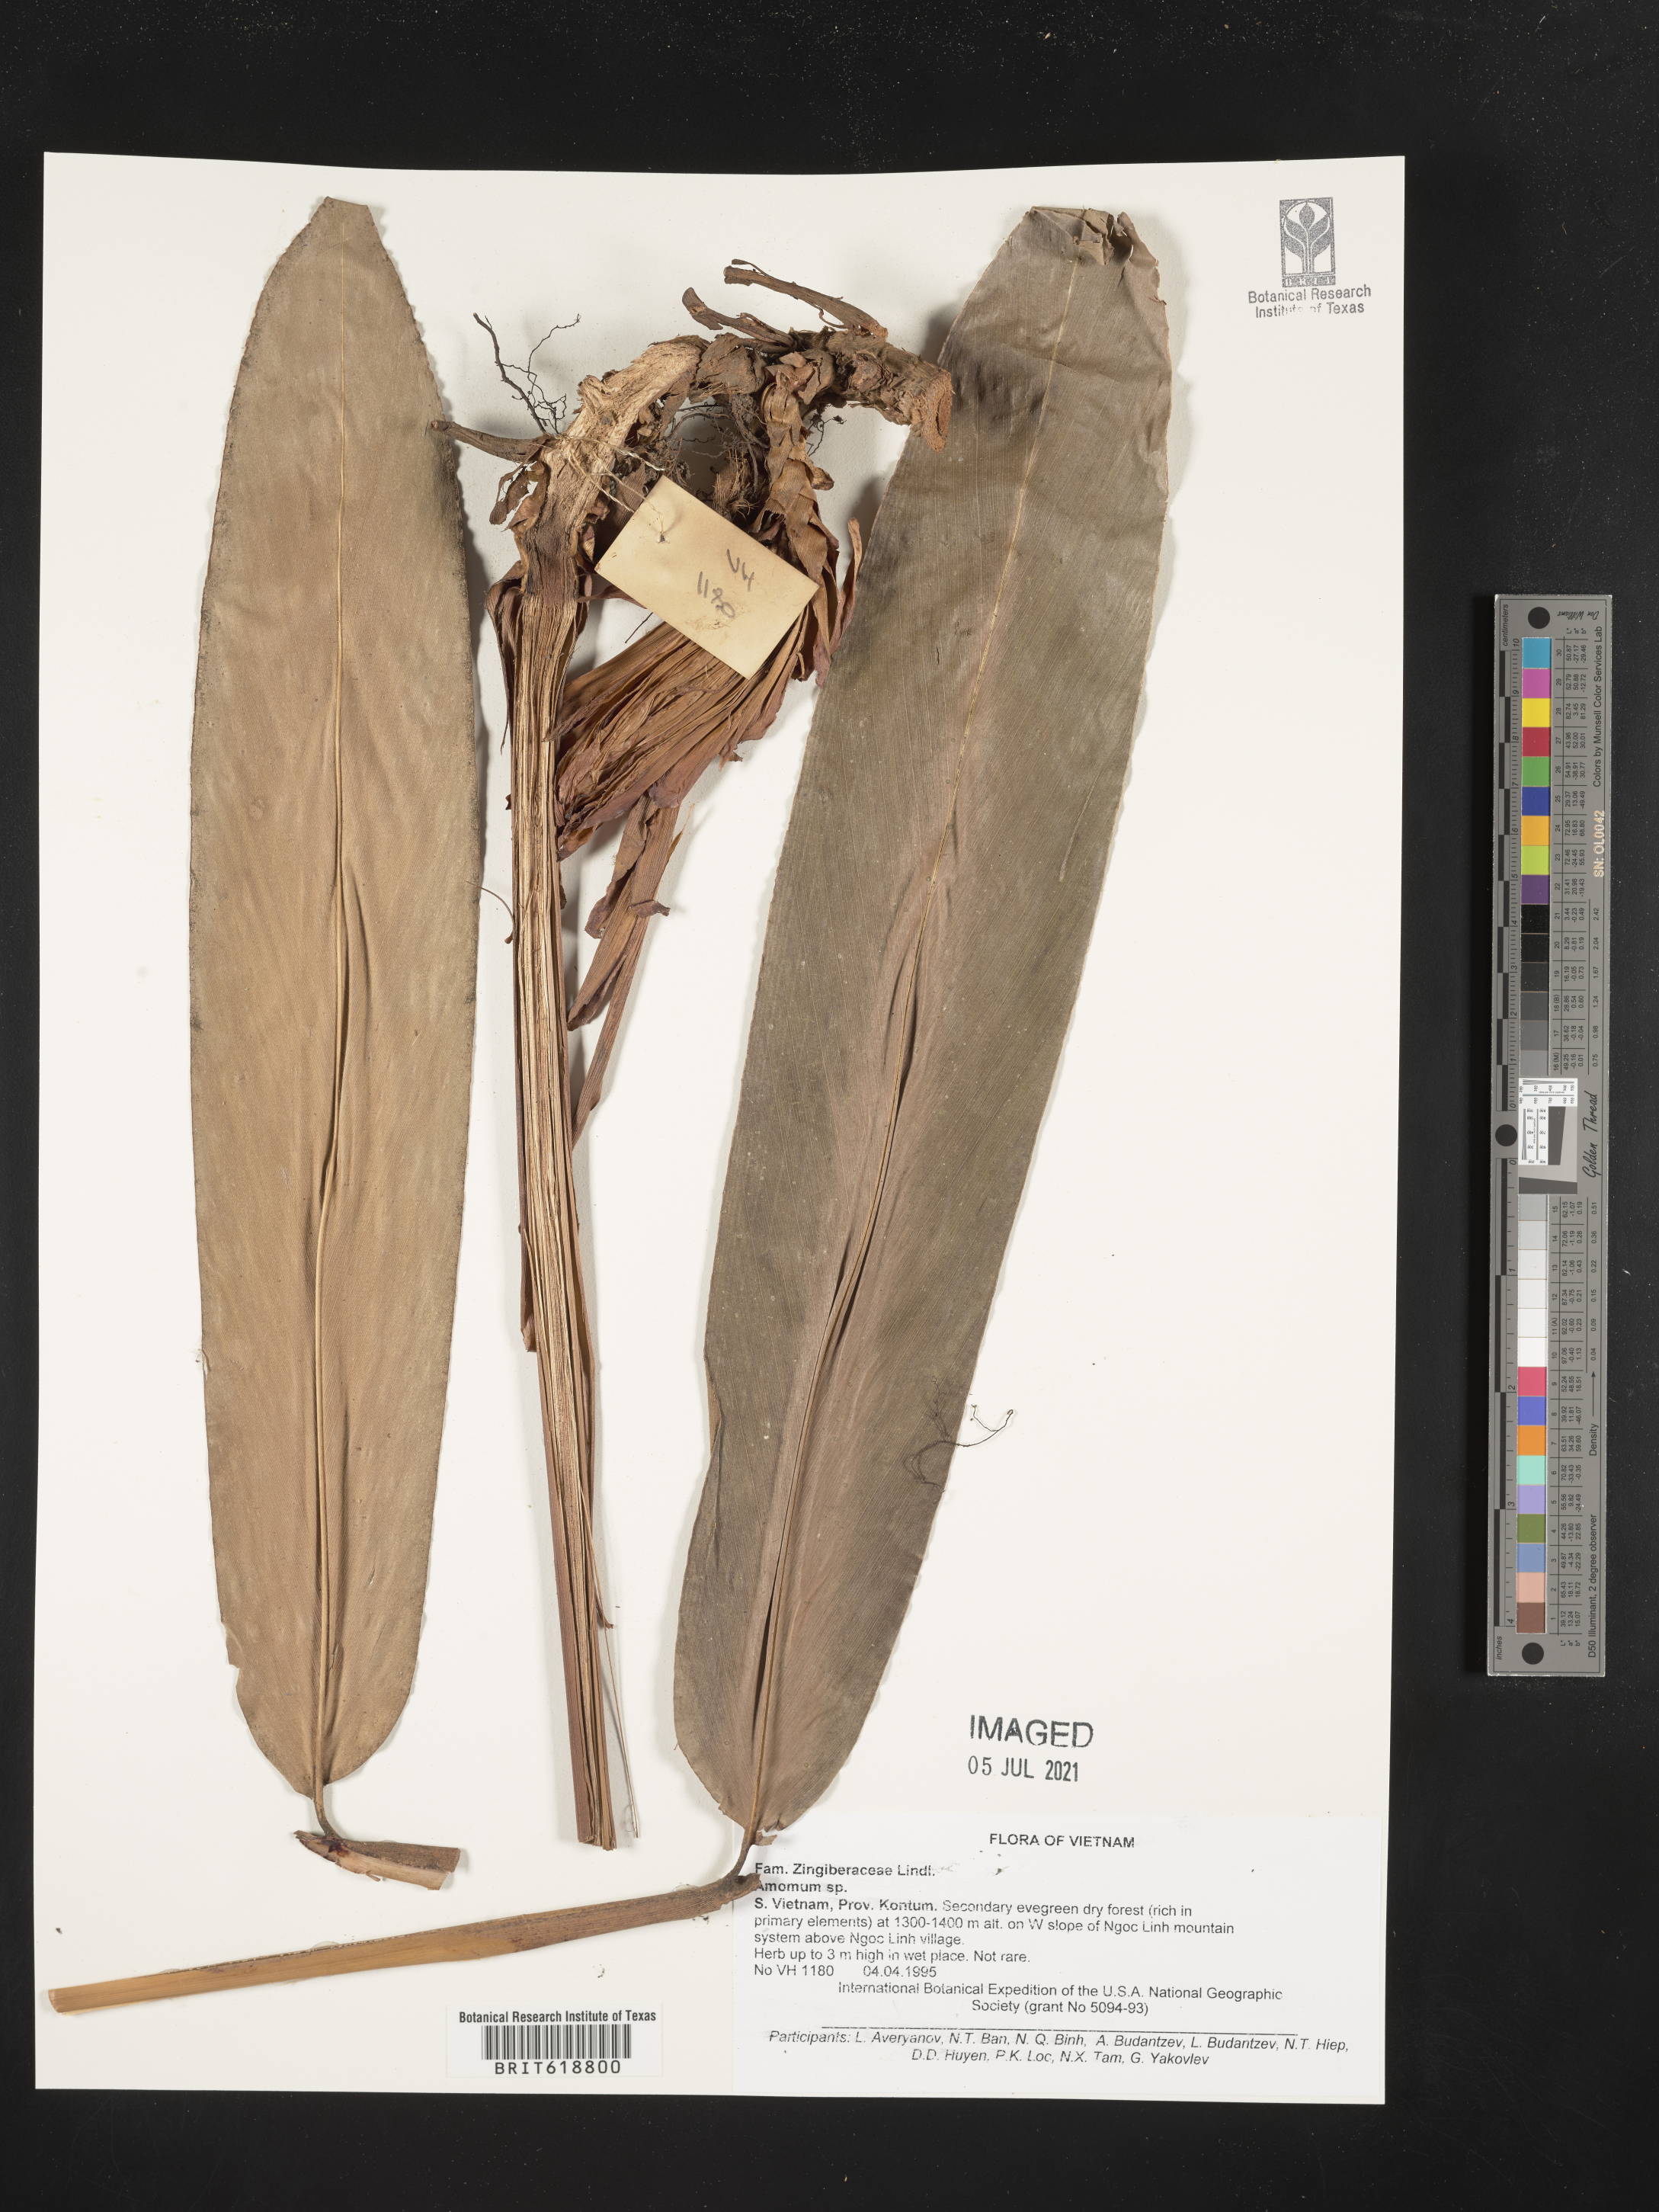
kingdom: Plantae
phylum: Tracheophyta
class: Liliopsida
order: Zingiberales
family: Zingiberaceae
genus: Amomum
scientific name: Amomum
